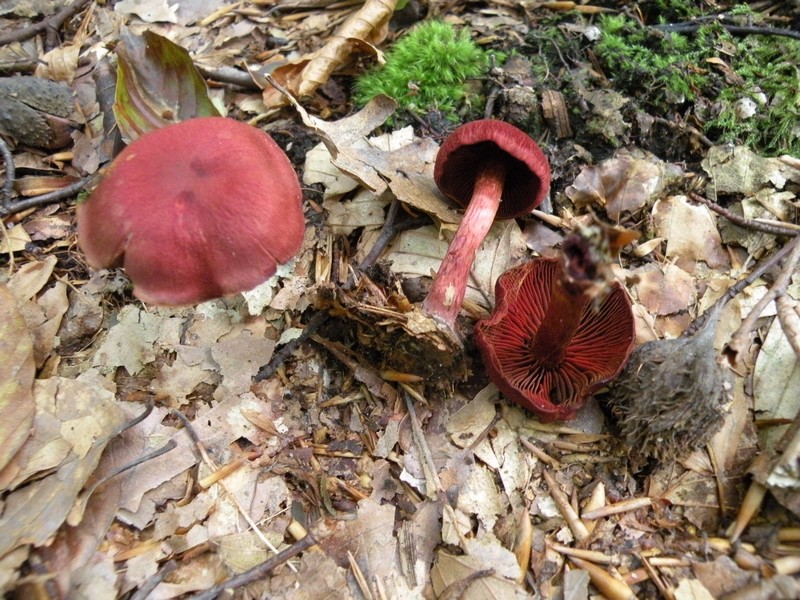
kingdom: Fungi
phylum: Basidiomycota
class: Agaricomycetes
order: Agaricales
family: Cortinariaceae
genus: Cortinarius
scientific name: Cortinarius sanguineus
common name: Bloodred webcap
